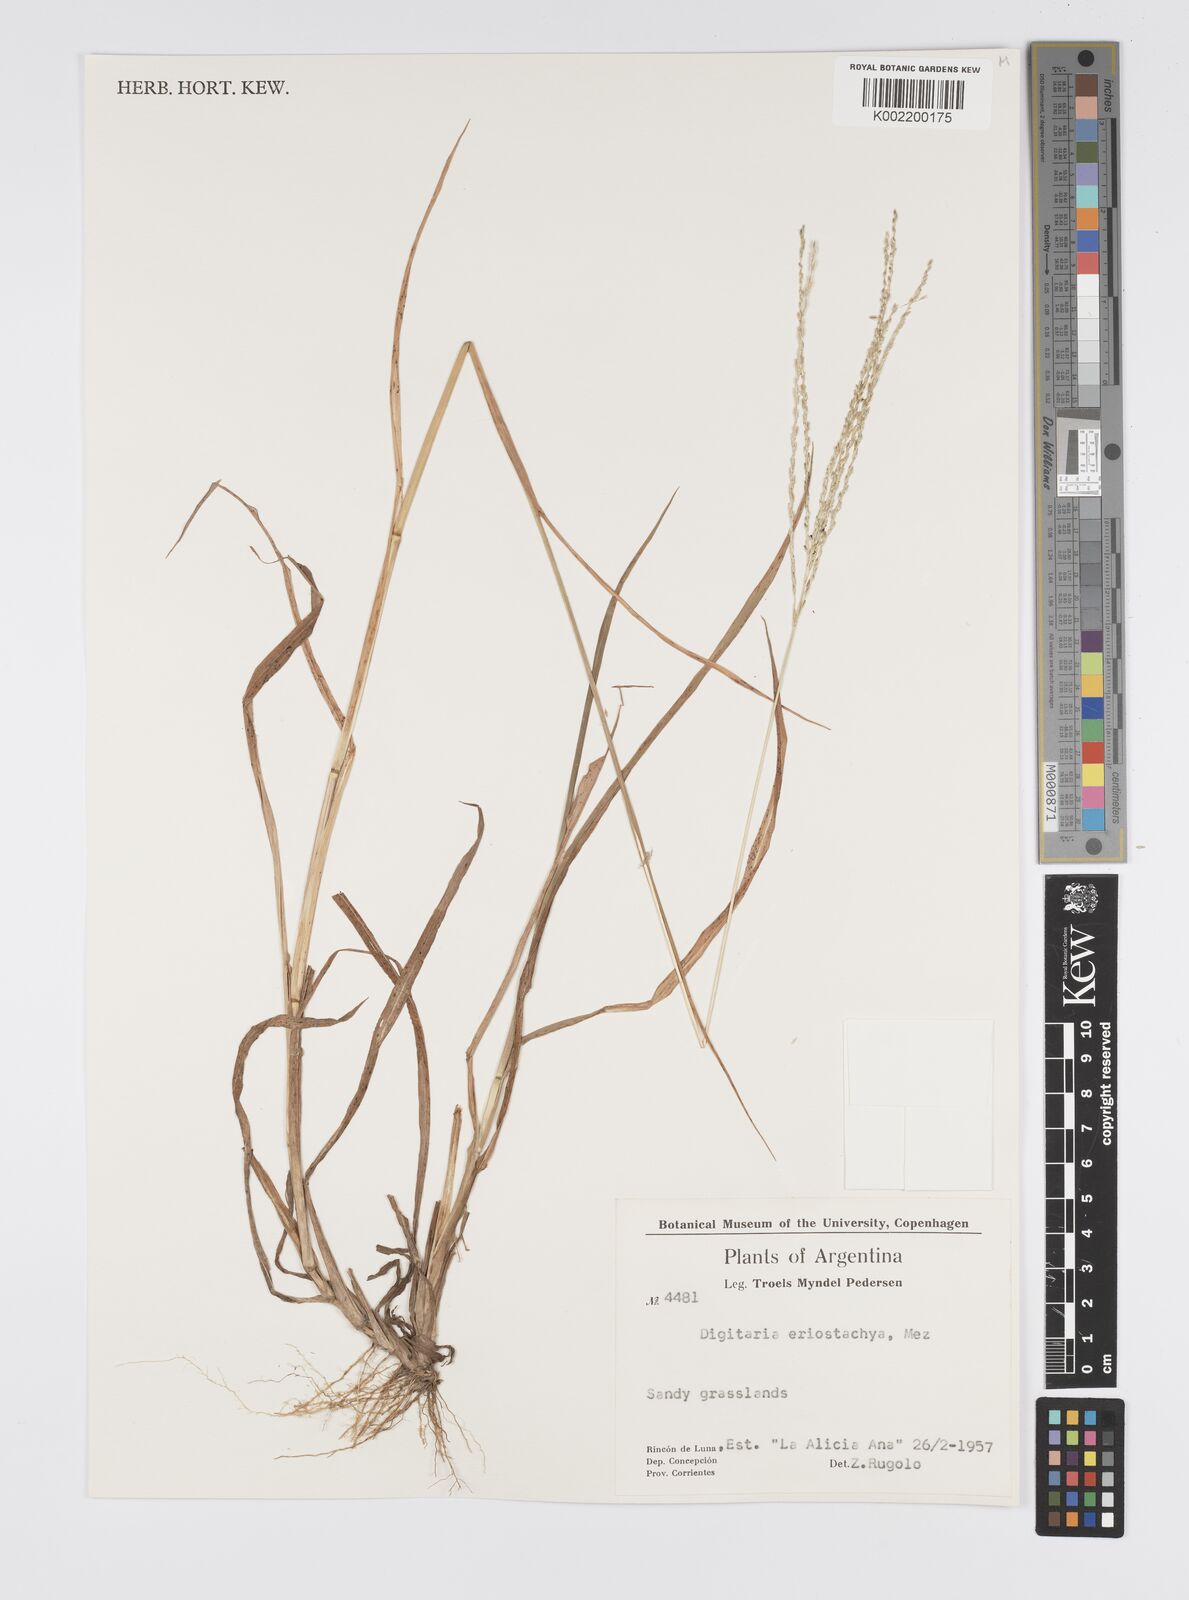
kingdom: Plantae
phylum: Tracheophyta
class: Liliopsida
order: Poales
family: Poaceae
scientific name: Poaceae
